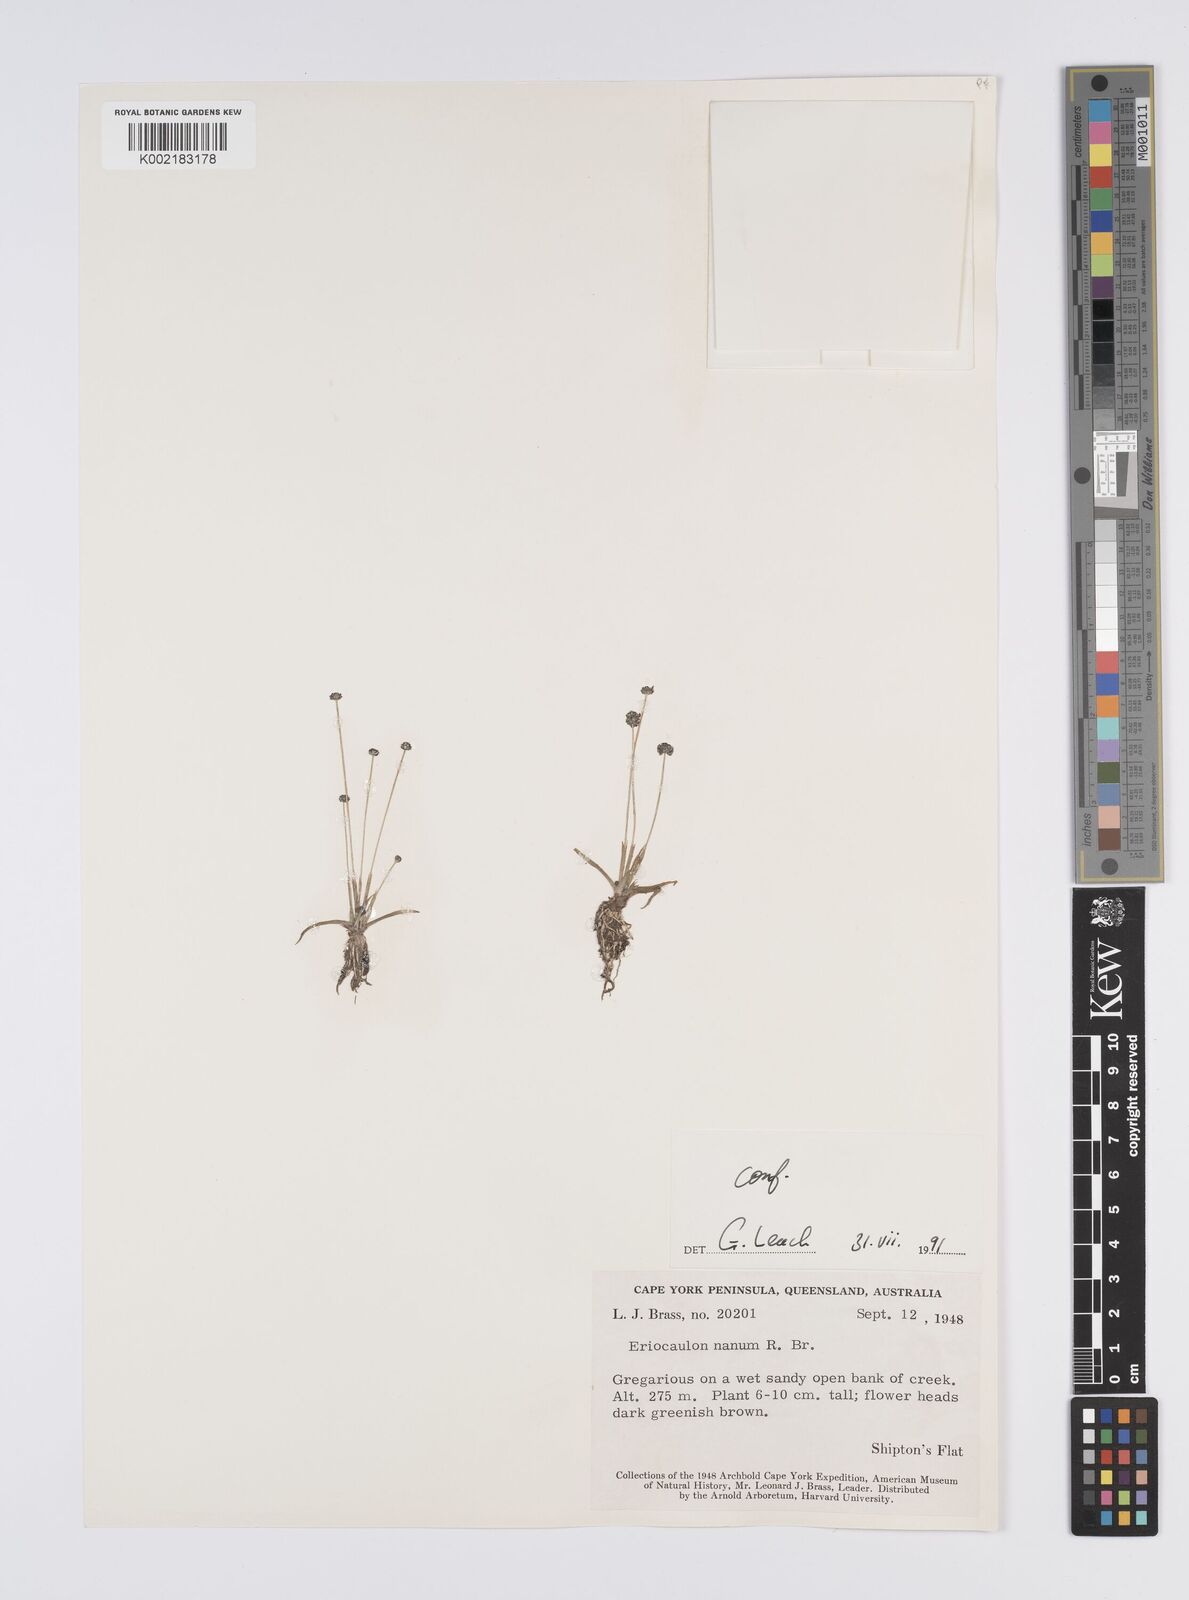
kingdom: Plantae
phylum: Tracheophyta
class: Liliopsida
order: Poales
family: Eriocaulaceae
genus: Eriocaulon
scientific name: Eriocaulon nanum
